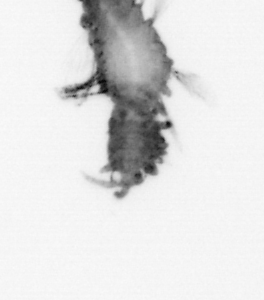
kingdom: Animalia
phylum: Annelida
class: Polychaeta
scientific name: Polychaeta
